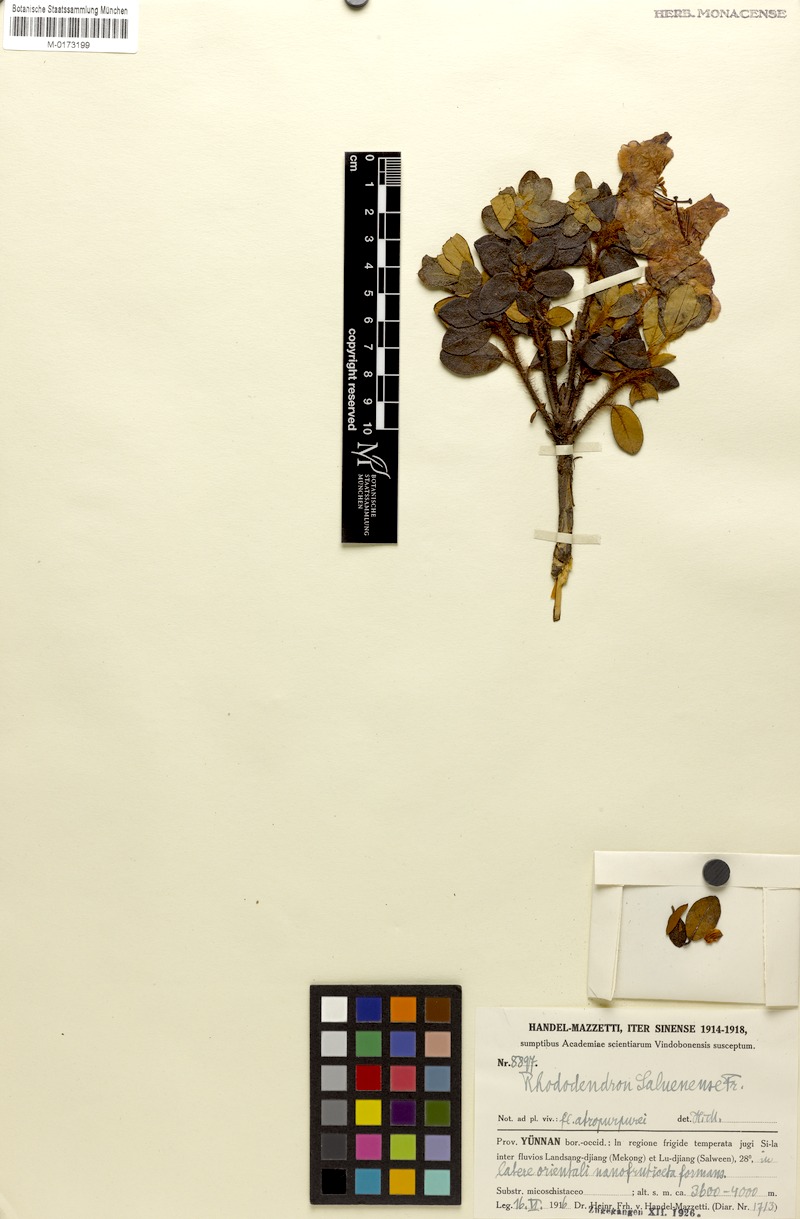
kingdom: Plantae
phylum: Tracheophyta
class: Magnoliopsida
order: Ericales
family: Ericaceae
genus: Rhododendron
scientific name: Rhododendron saluenense
